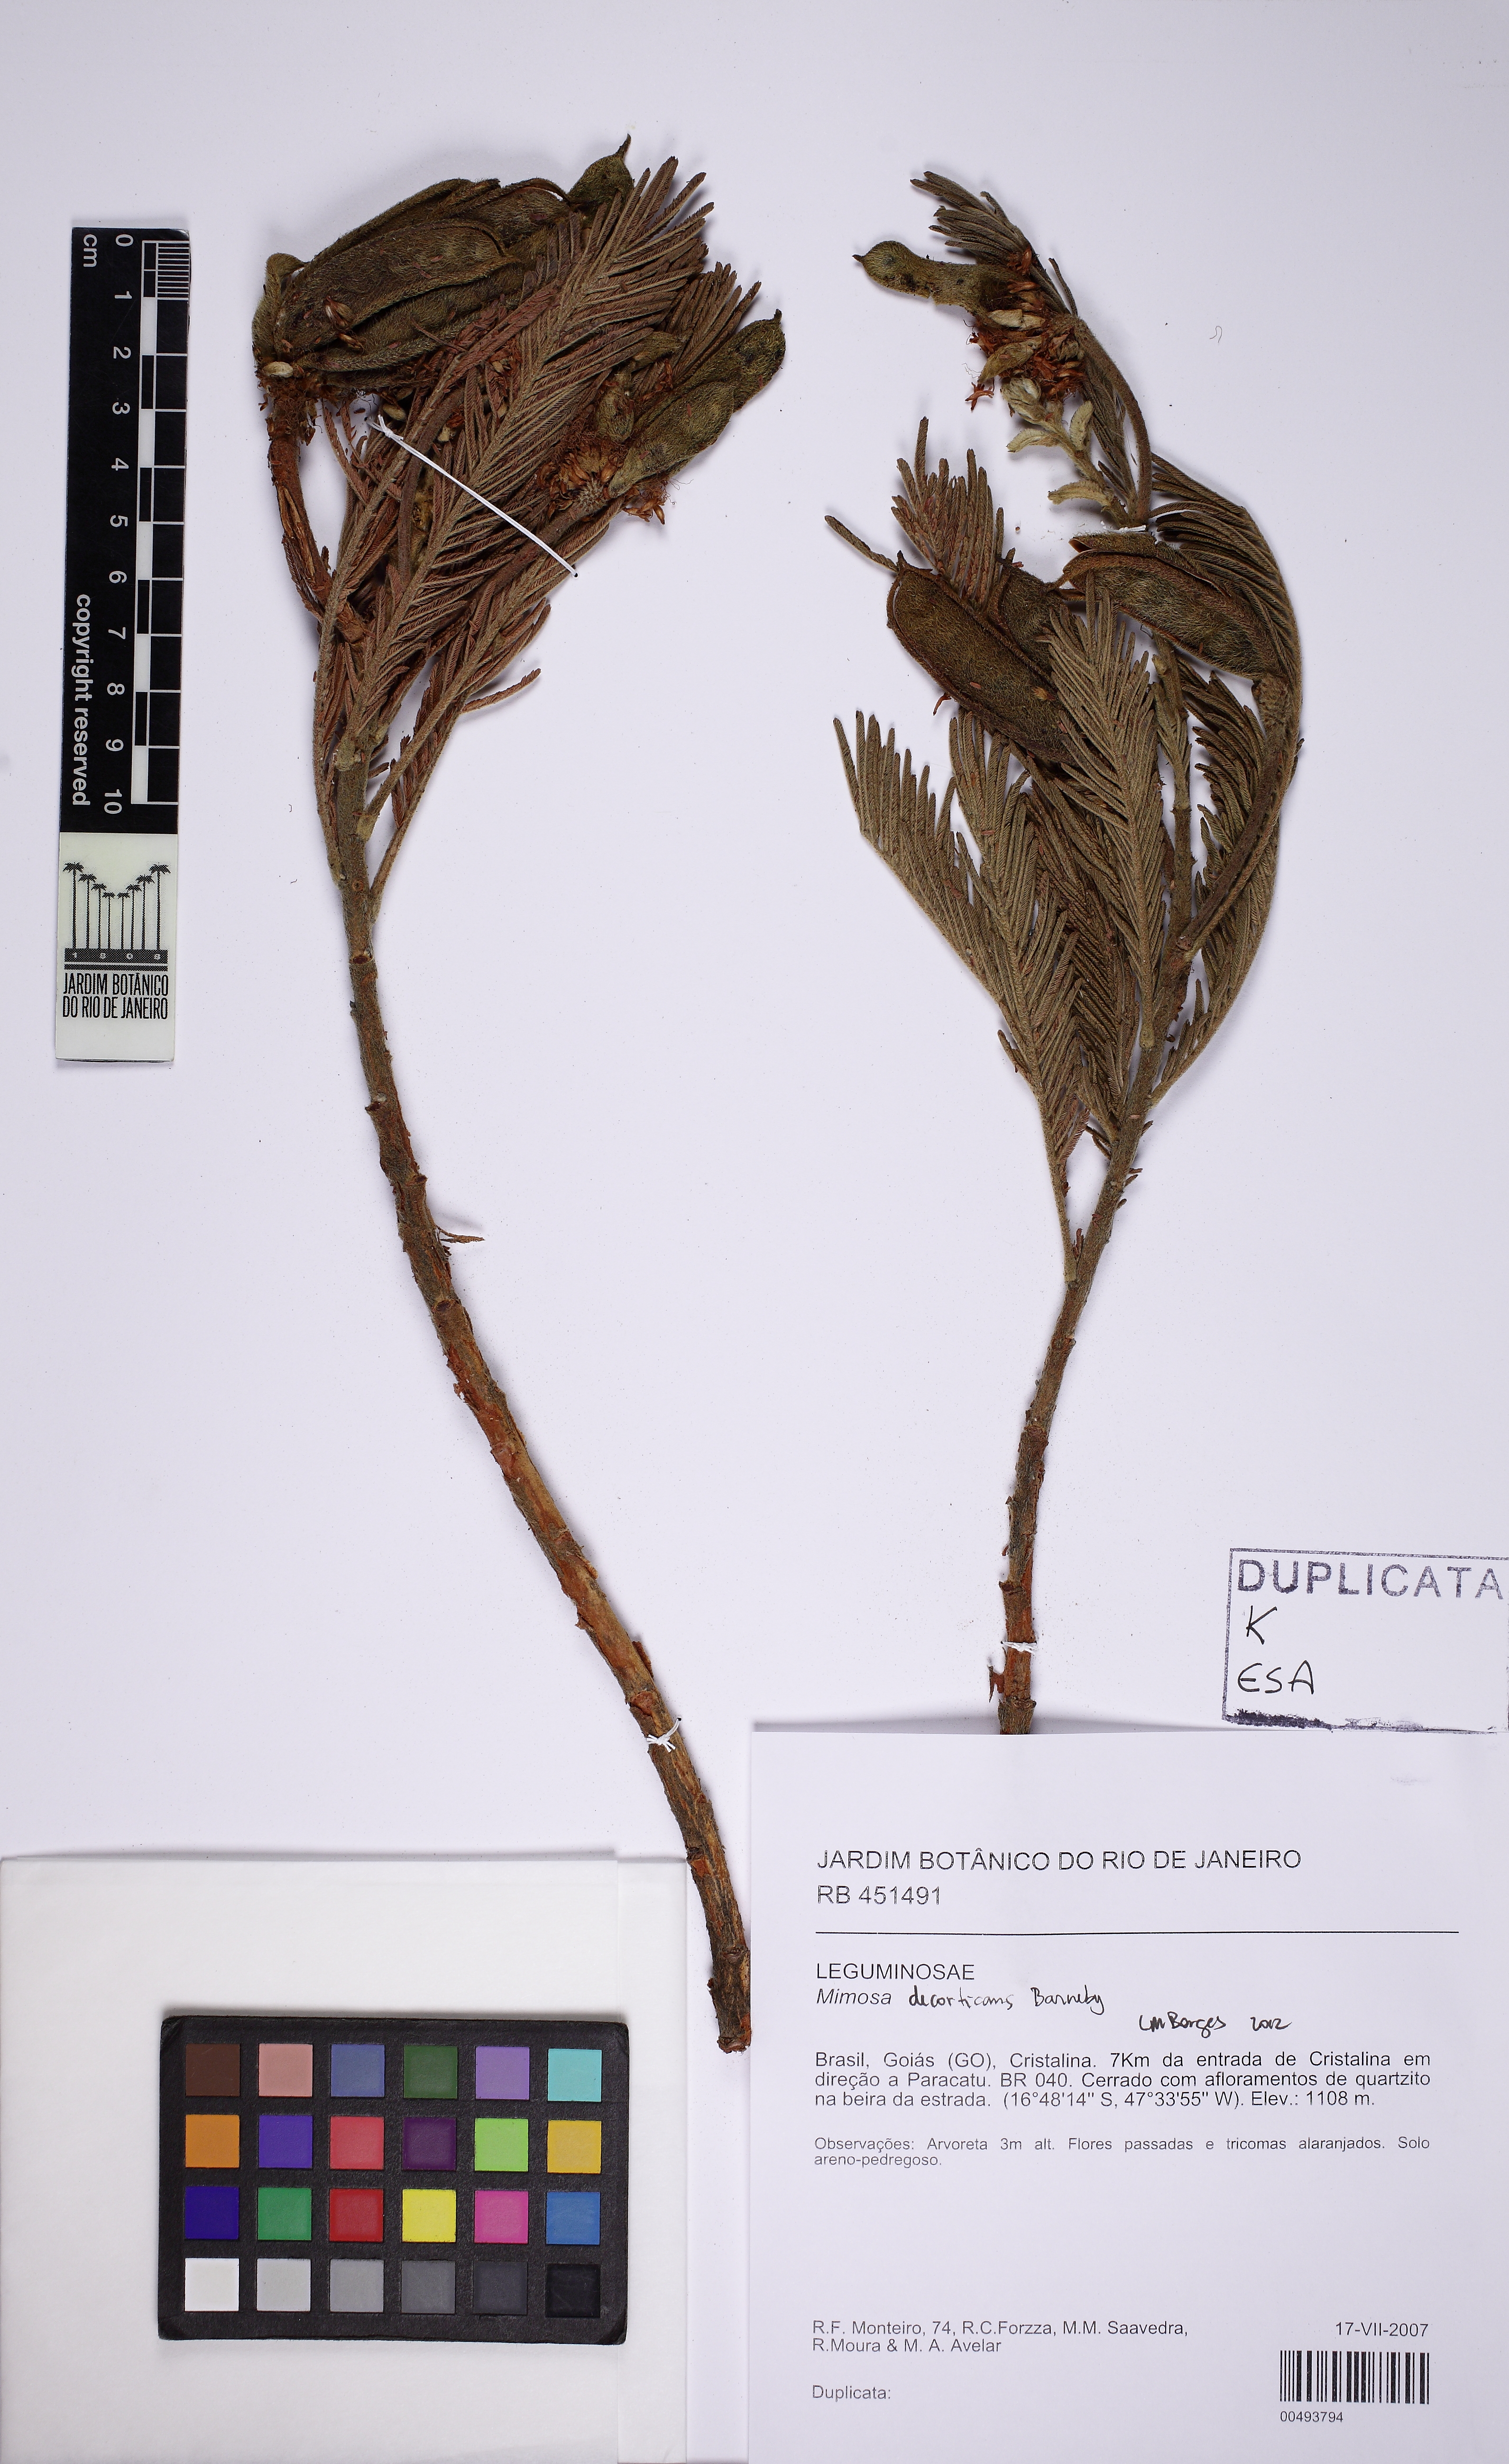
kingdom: Plantae
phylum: Tracheophyta
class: Magnoliopsida
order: Fabales
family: Fabaceae
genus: Mimosa
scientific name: Mimosa decorticans
